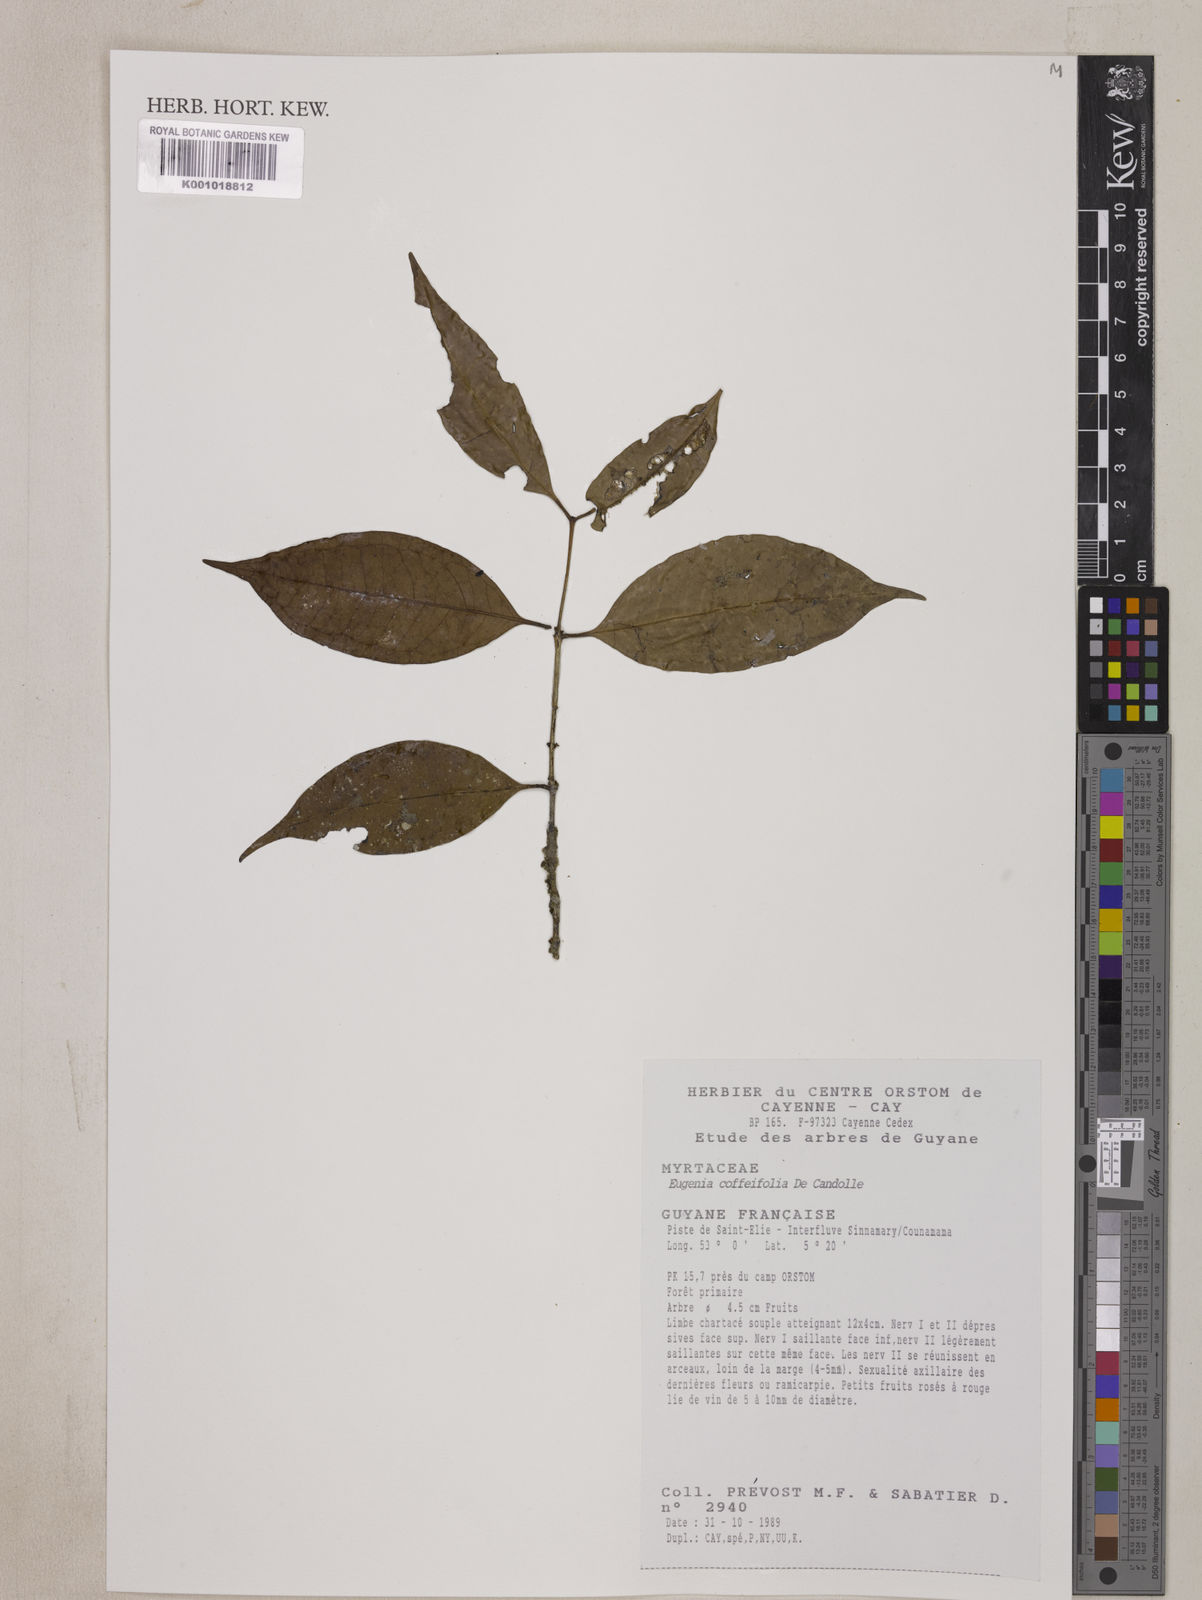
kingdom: Plantae
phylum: Tracheophyta
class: Magnoliopsida
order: Myrtales
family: Myrtaceae
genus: Eugenia
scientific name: Eugenia coffeifolia
